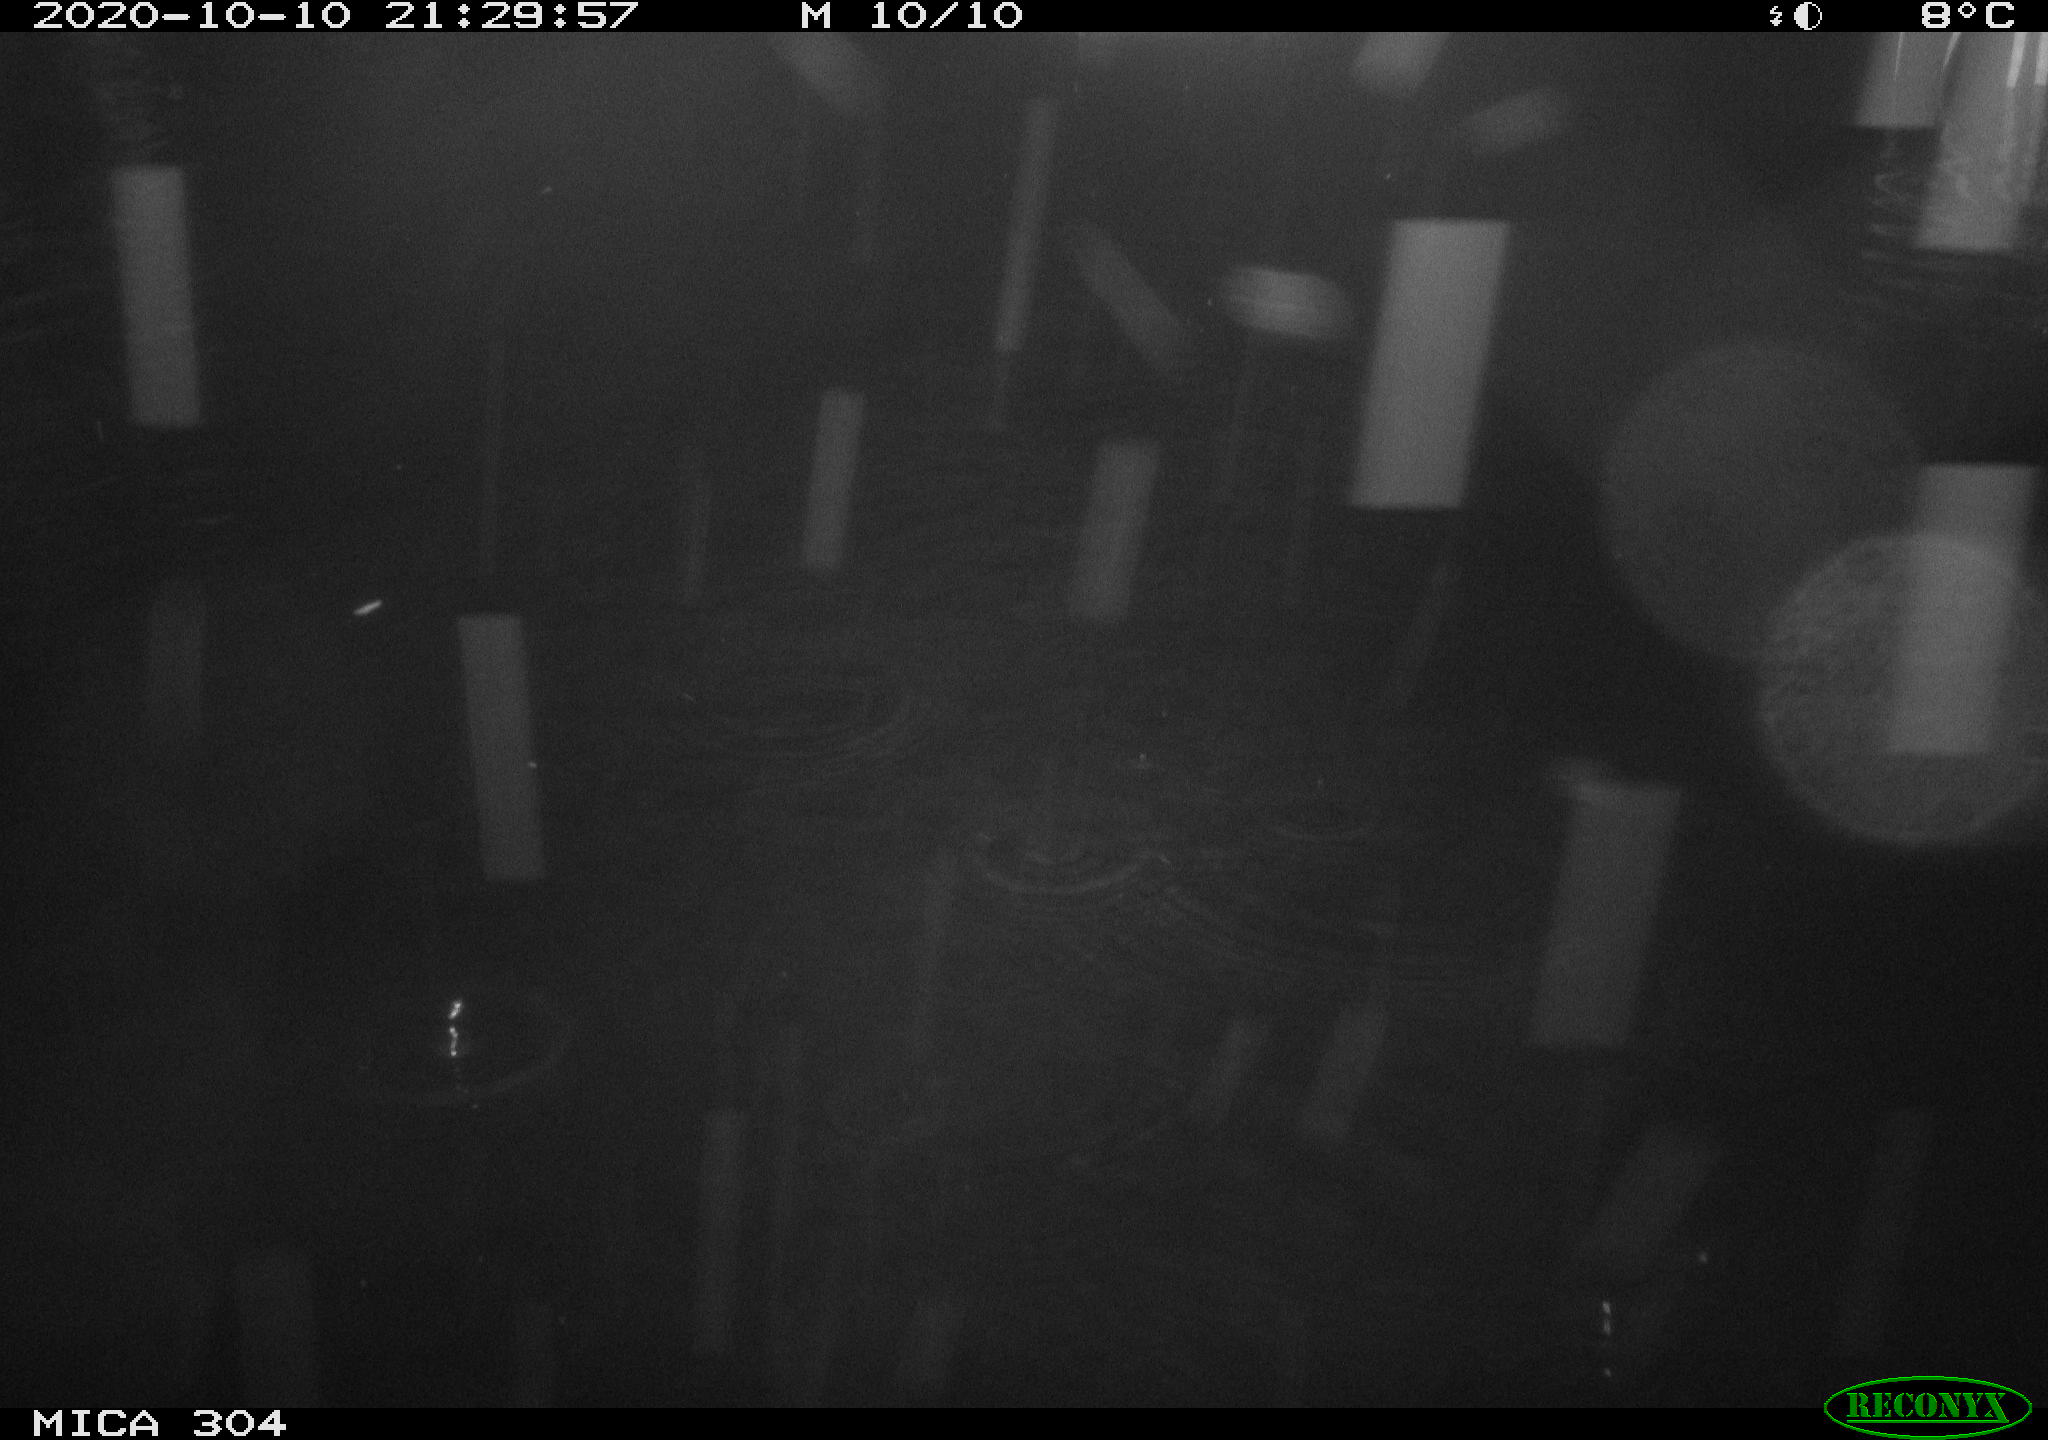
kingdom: Animalia
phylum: Chordata
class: Mammalia
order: Rodentia
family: Muridae
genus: Rattus
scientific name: Rattus norvegicus
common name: Brown rat
